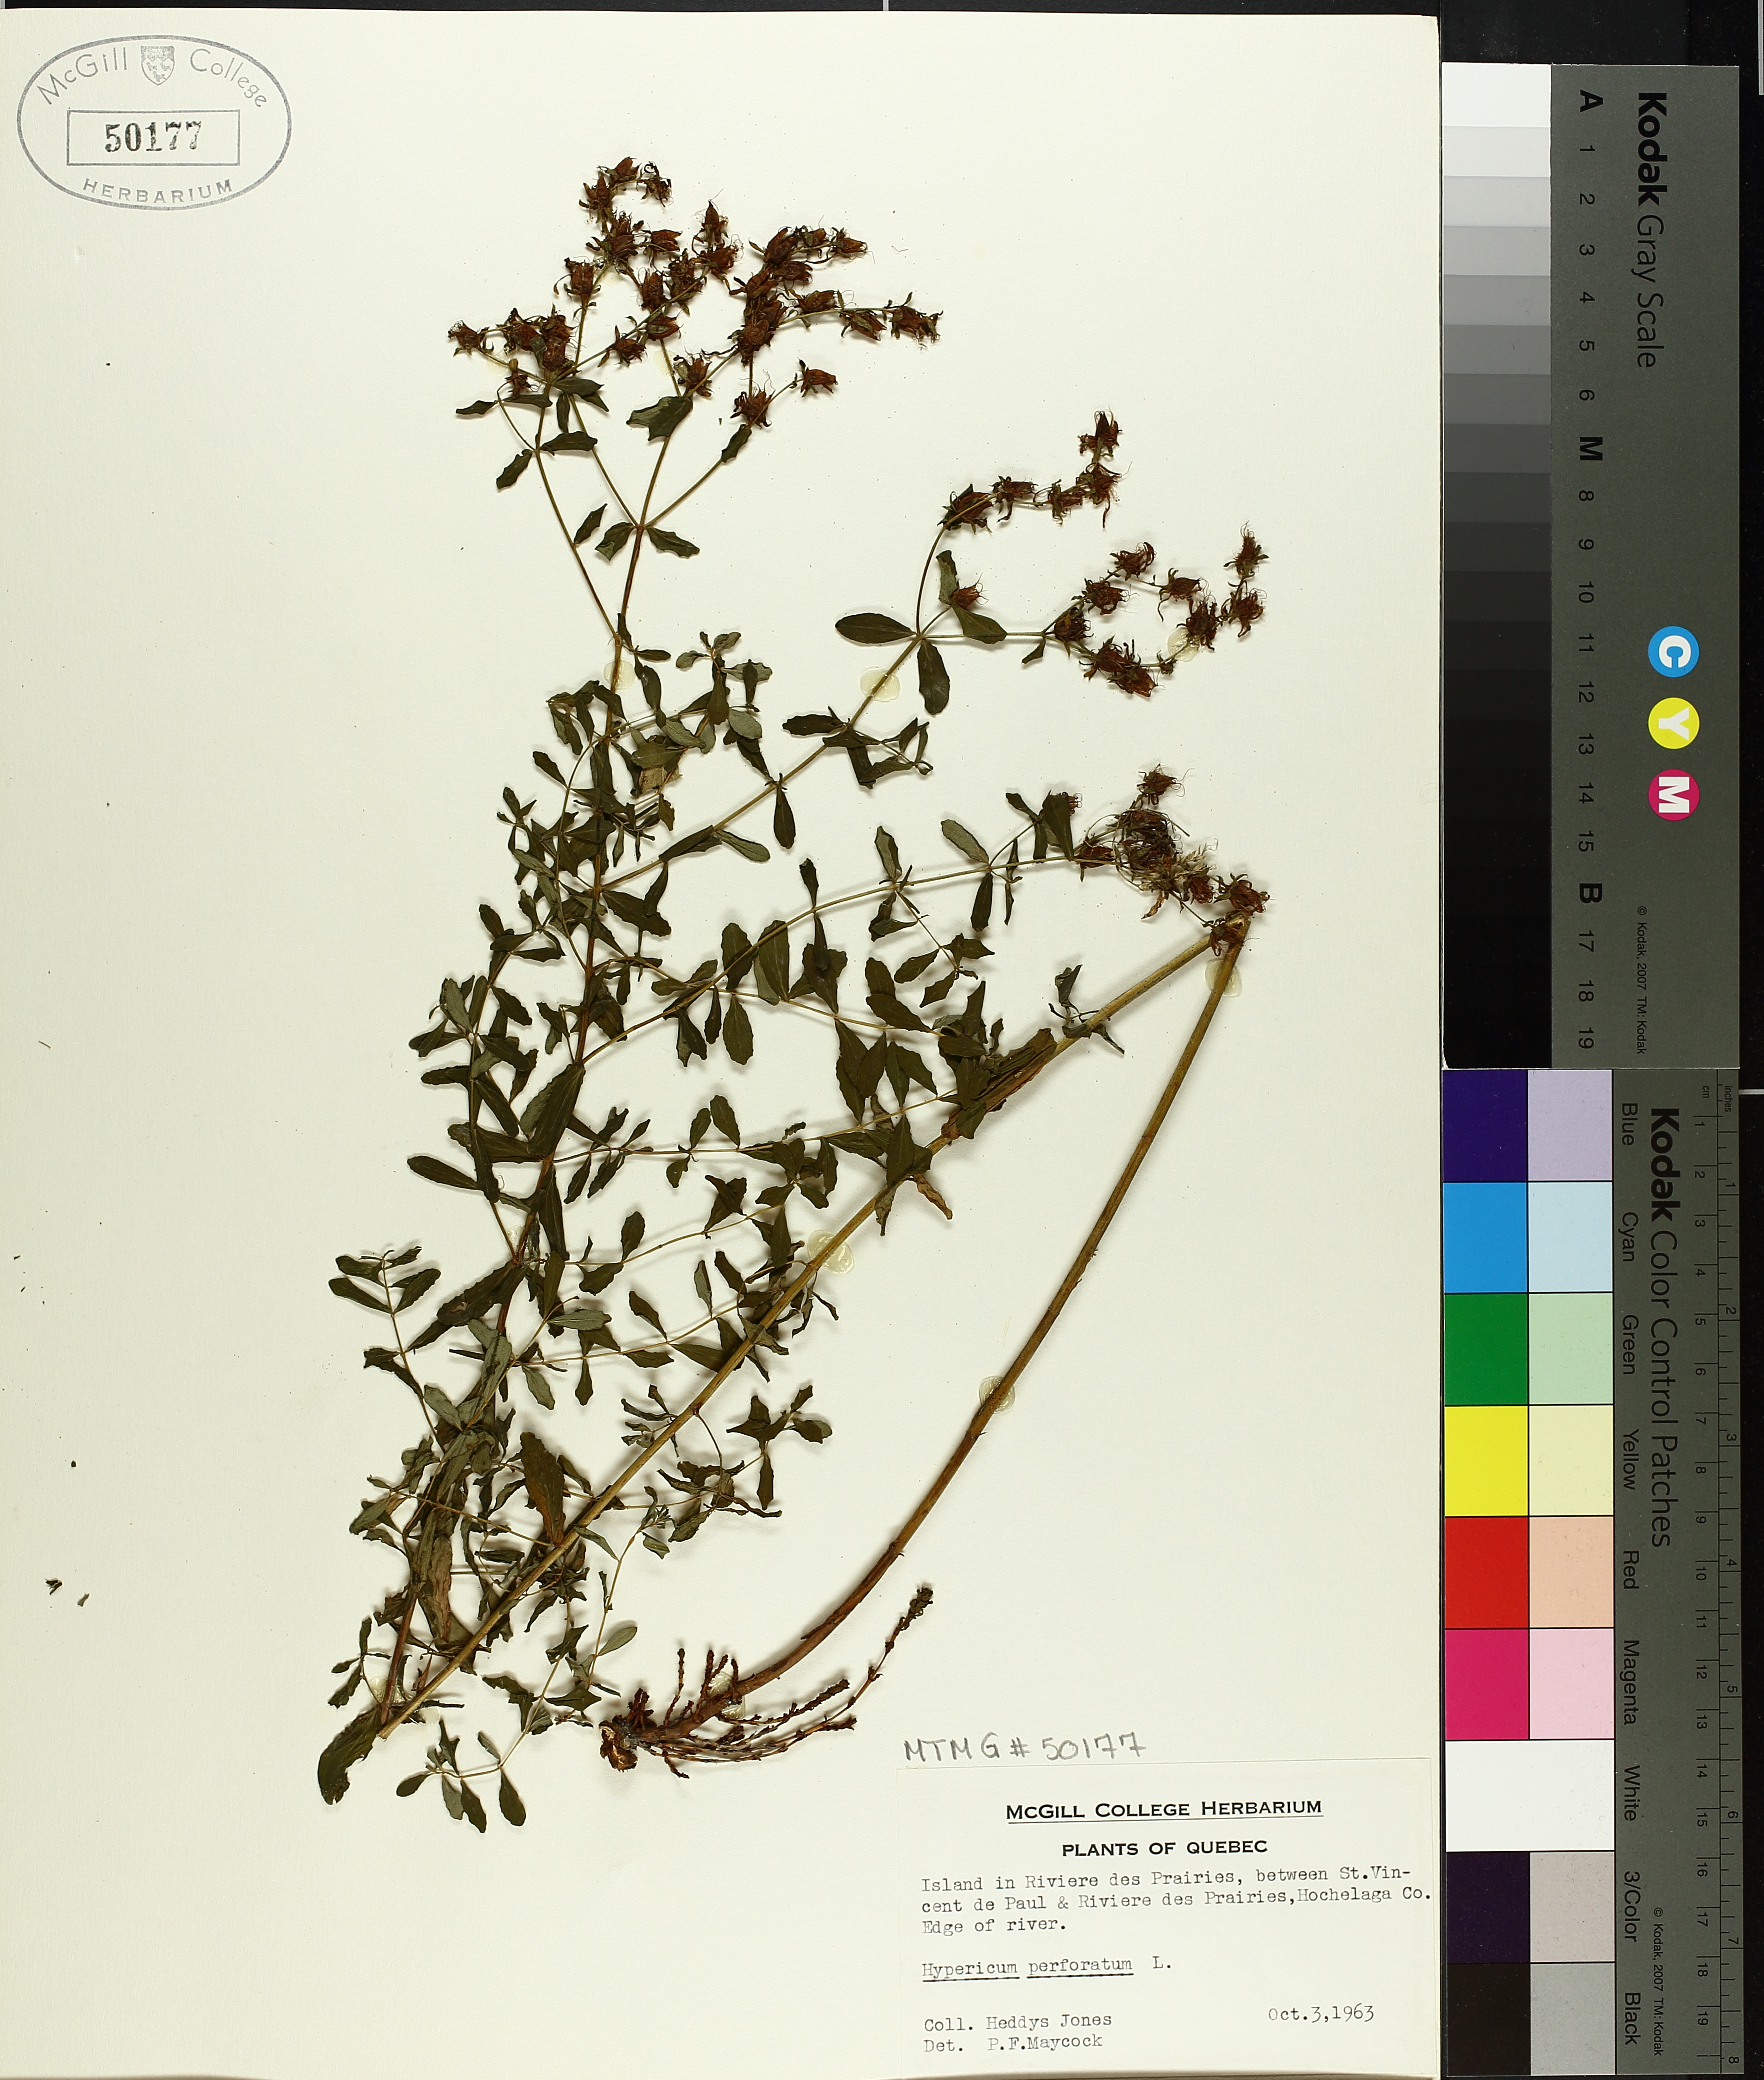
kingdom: Plantae
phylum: Tracheophyta
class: Magnoliopsida
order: Malpighiales
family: Hypericaceae
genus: Hypericum
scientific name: Hypericum perforatum
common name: Common st. johnswort
